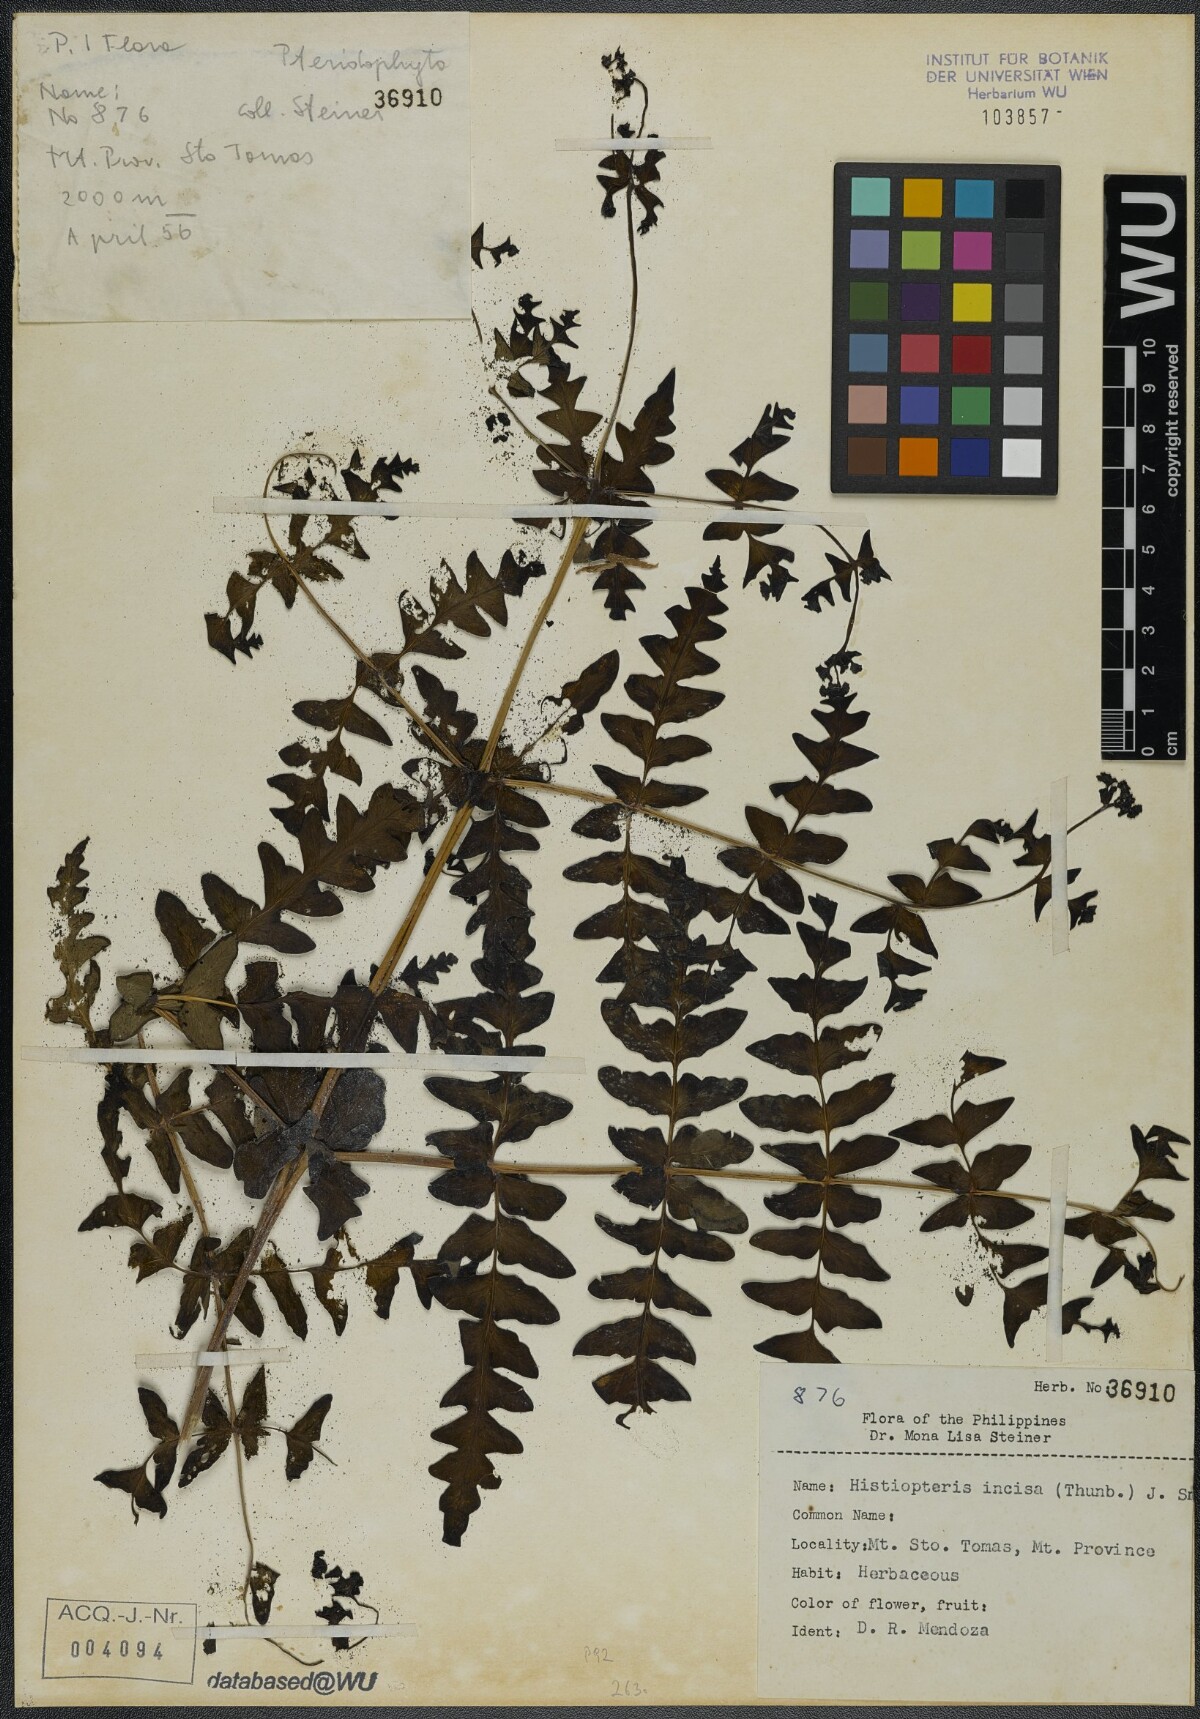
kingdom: Plantae
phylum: Tracheophyta
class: Polypodiopsida
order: Polypodiales
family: Dennstaedtiaceae
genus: Histiopteris
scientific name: Histiopteris incisa
